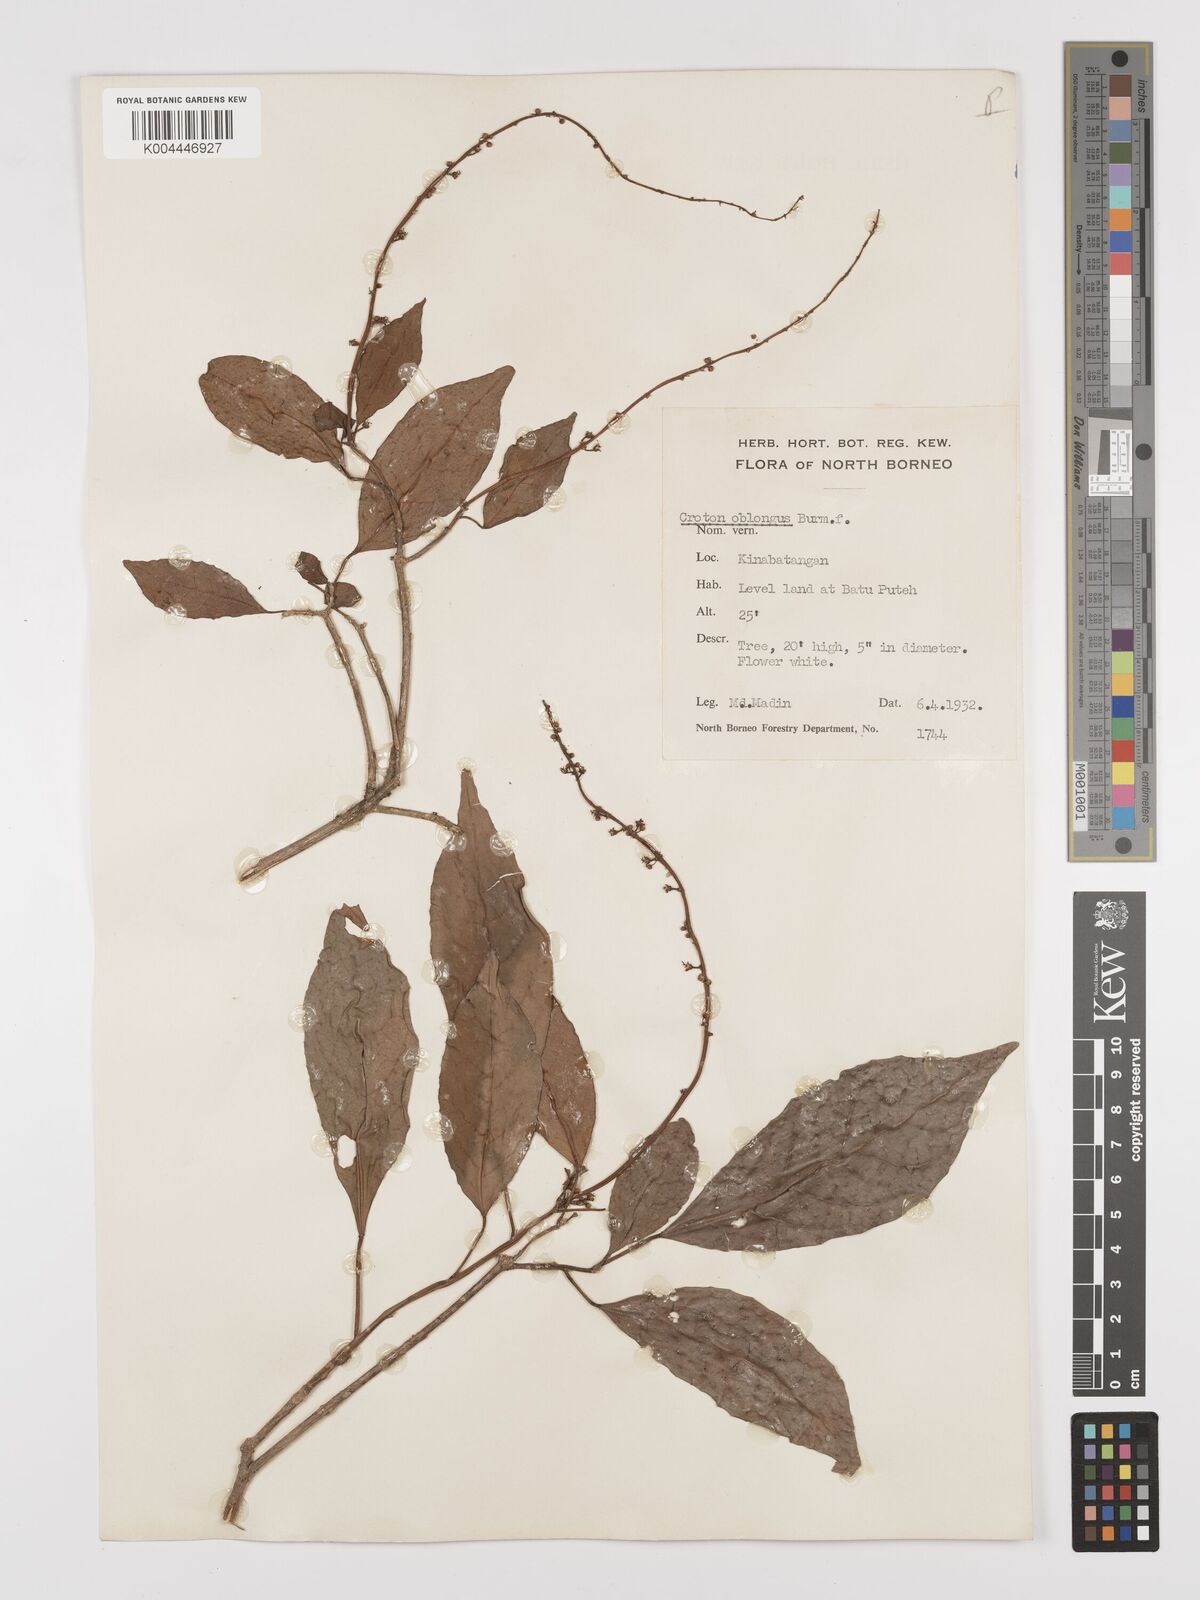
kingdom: Plantae
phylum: Tracheophyta
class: Magnoliopsida
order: Malpighiales
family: Euphorbiaceae
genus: Croton
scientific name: Croton oblongus
